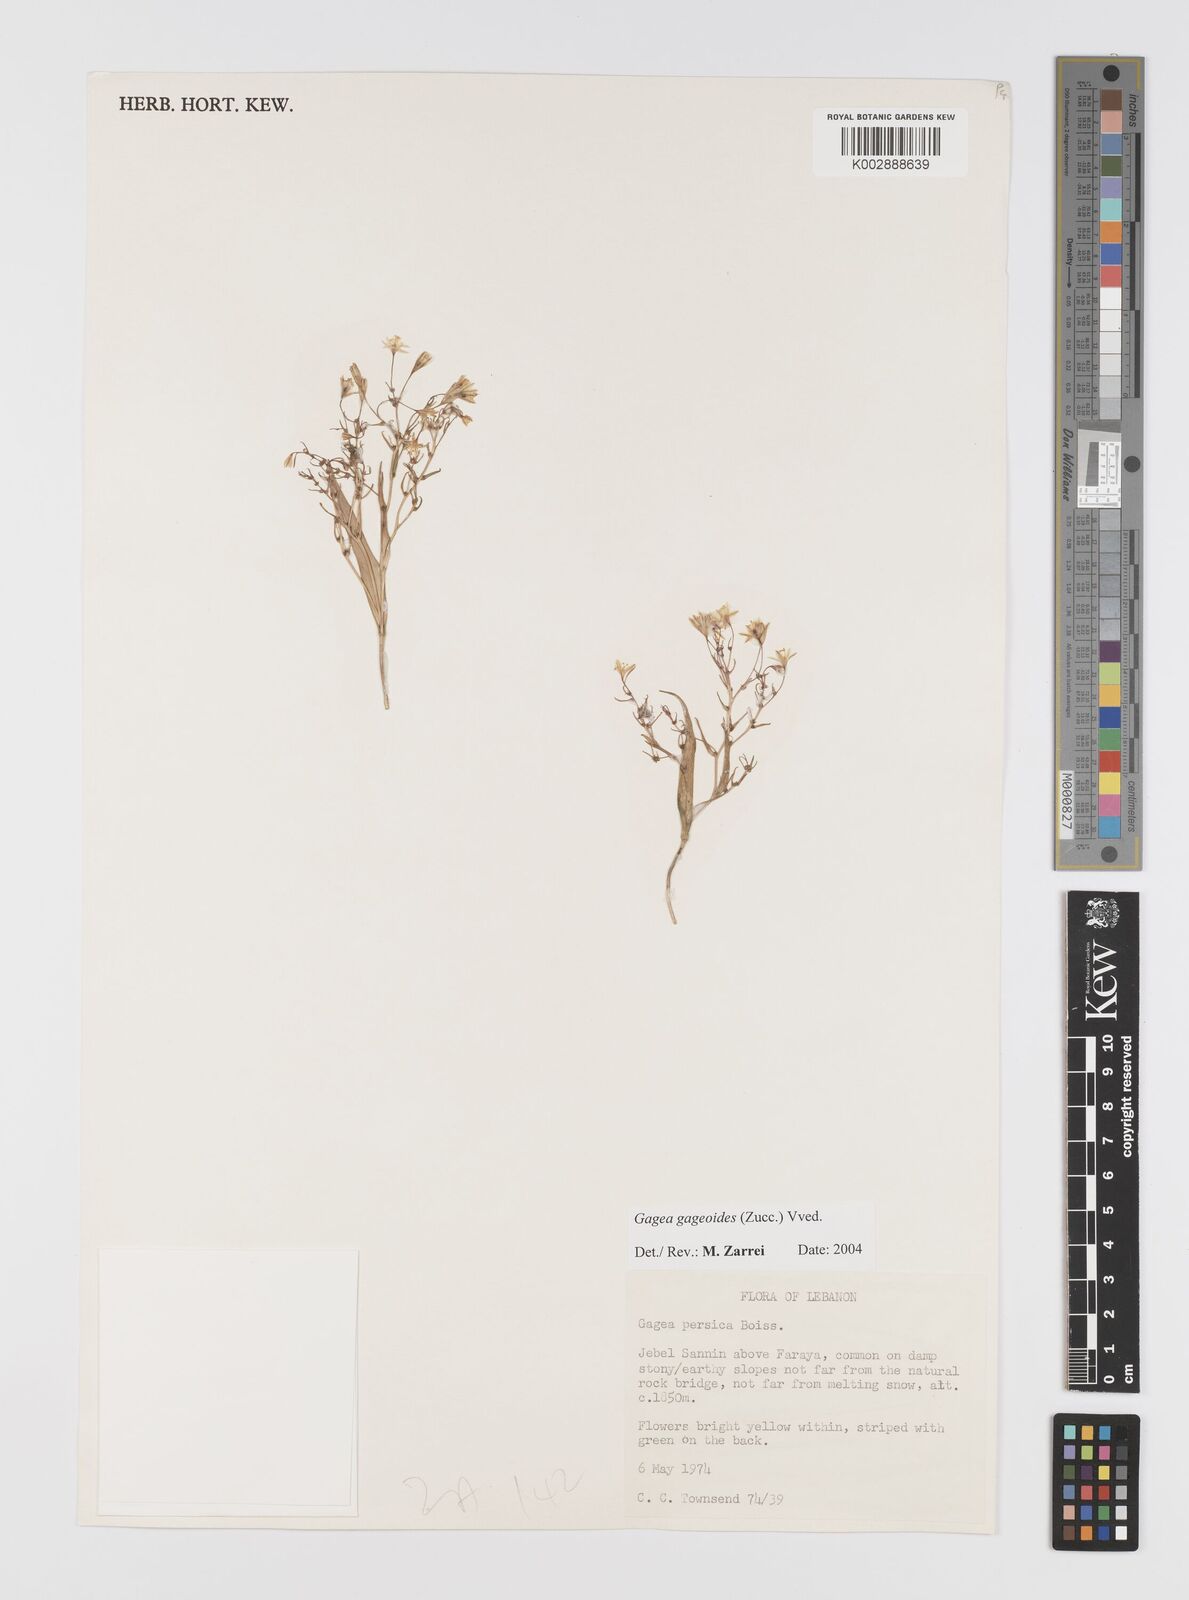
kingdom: Plantae
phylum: Tracheophyta
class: Liliopsida
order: Liliales
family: Liliaceae
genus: Gagea
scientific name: Gagea gageoides
